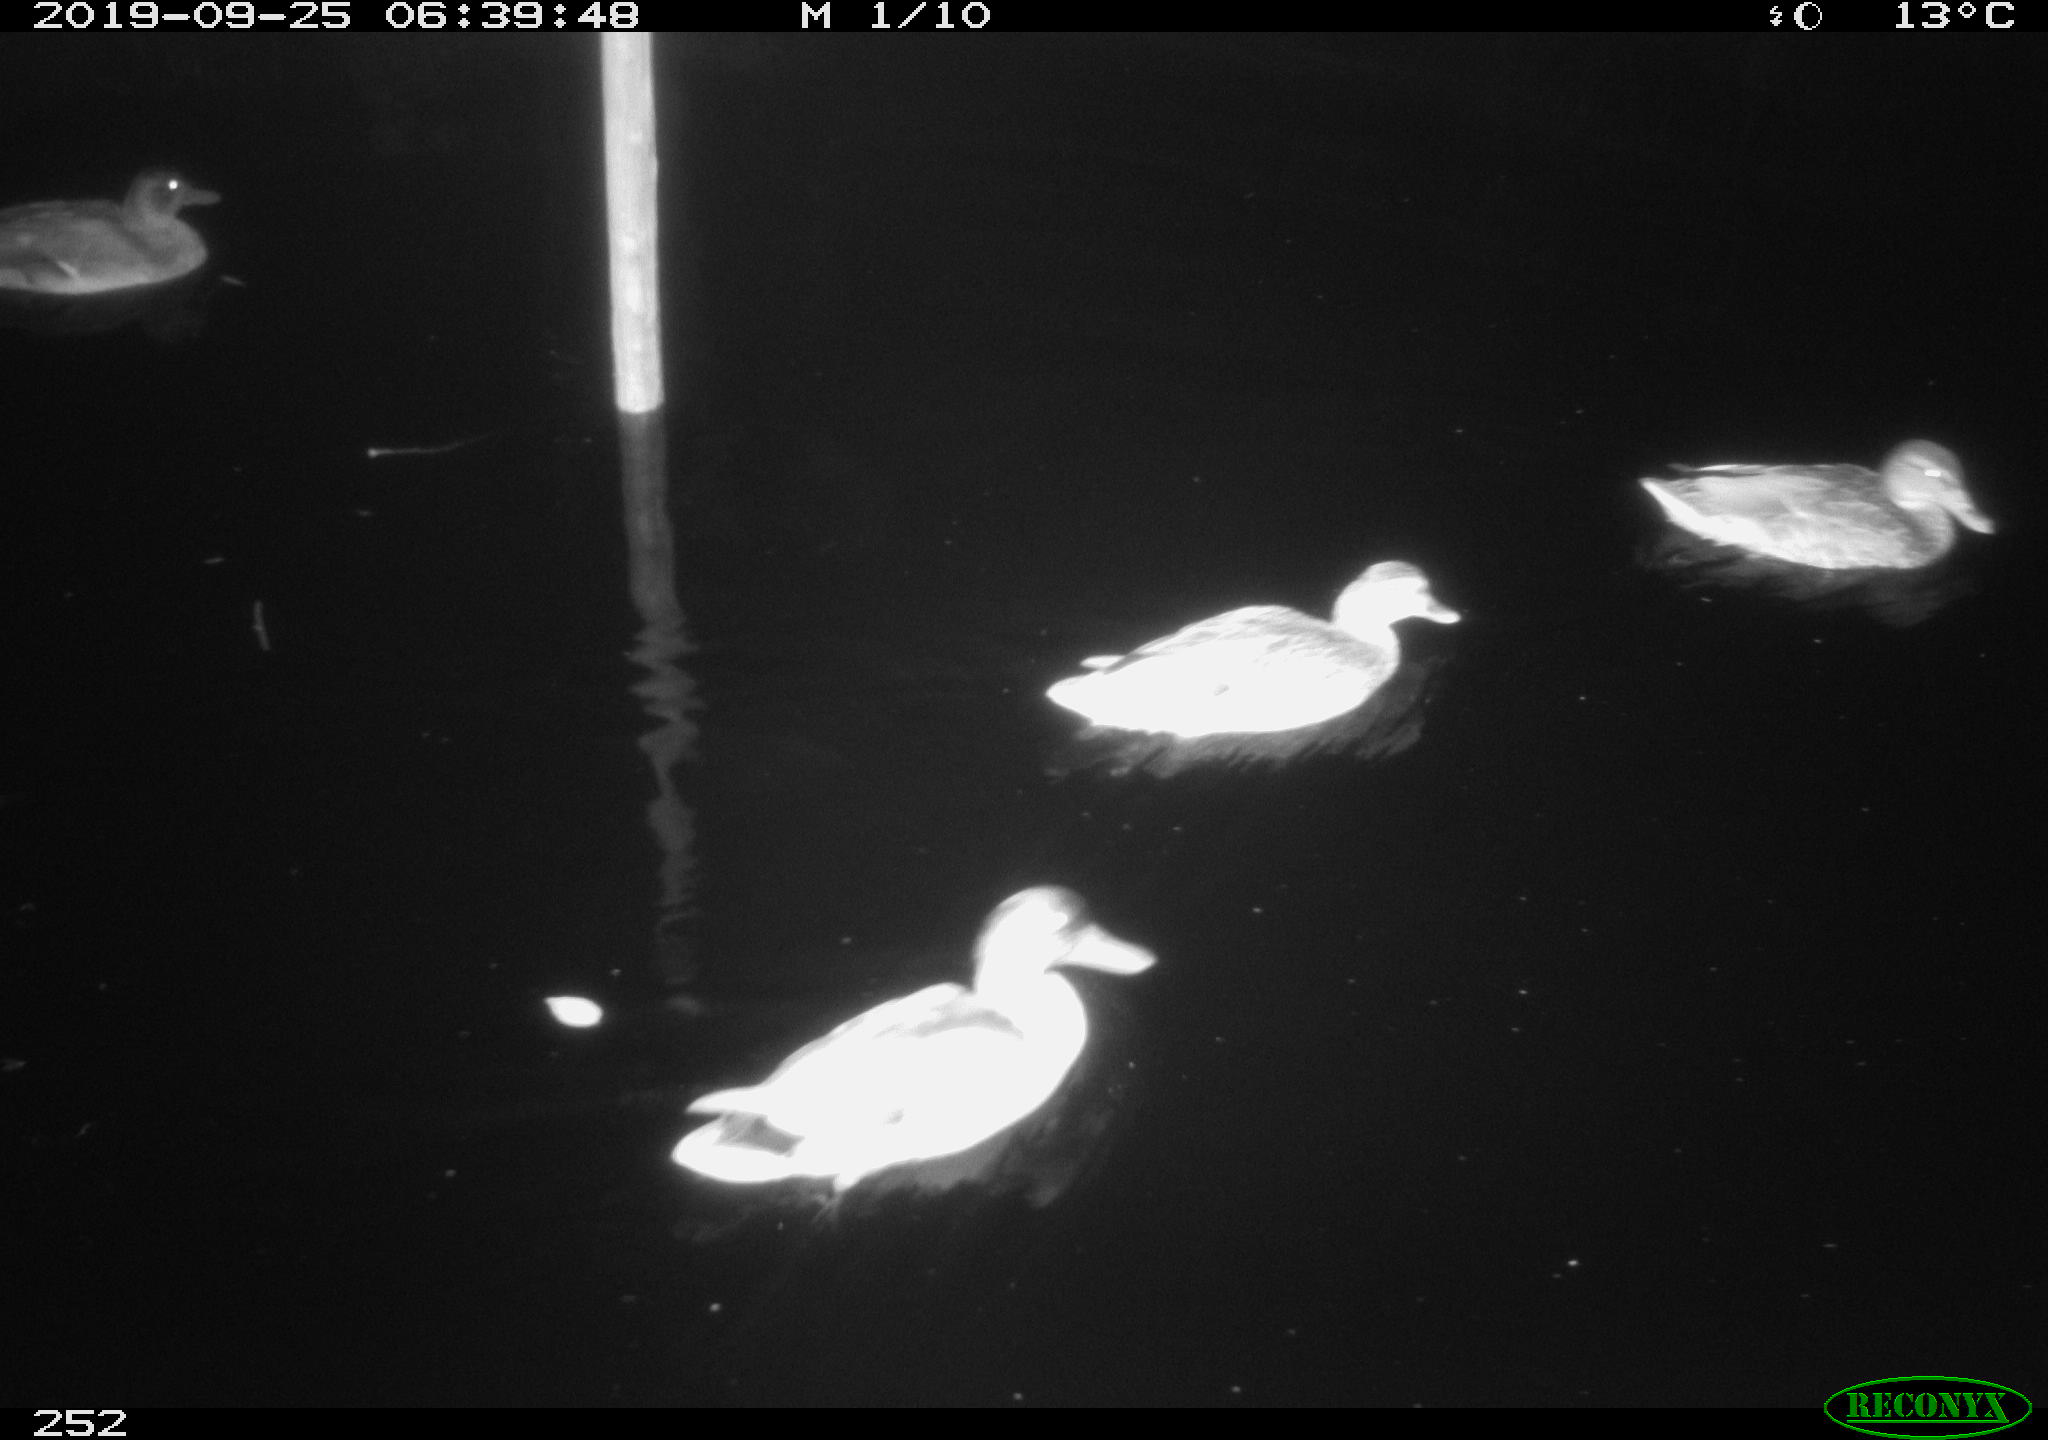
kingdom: Animalia
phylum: Chordata
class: Aves
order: Anseriformes
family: Anatidae
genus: Anas
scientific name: Anas platyrhynchos
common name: Mallard
